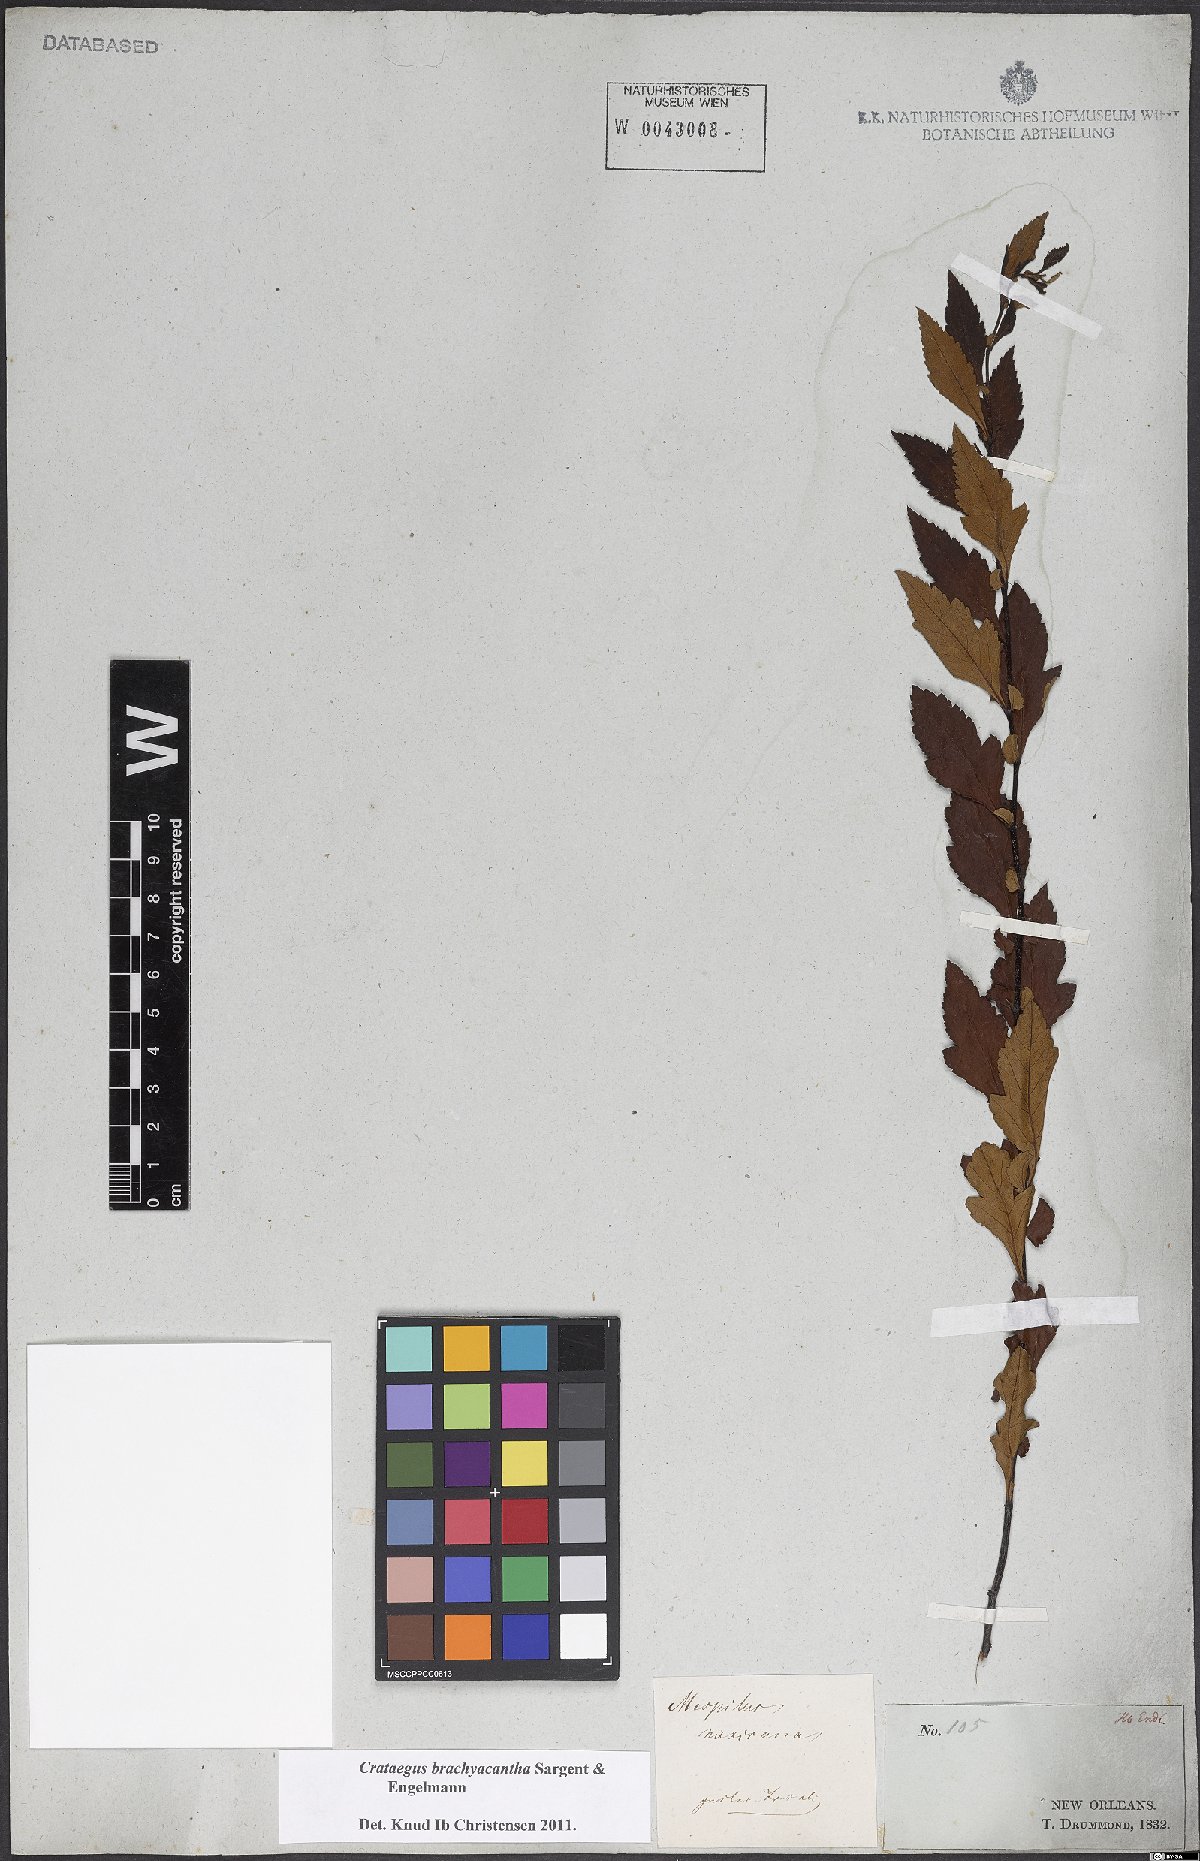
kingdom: Plantae
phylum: Tracheophyta
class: Magnoliopsida
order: Rosales
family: Rosaceae
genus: Crataegus
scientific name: Crataegus brachyacantha
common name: Blueberry-hawthorn
